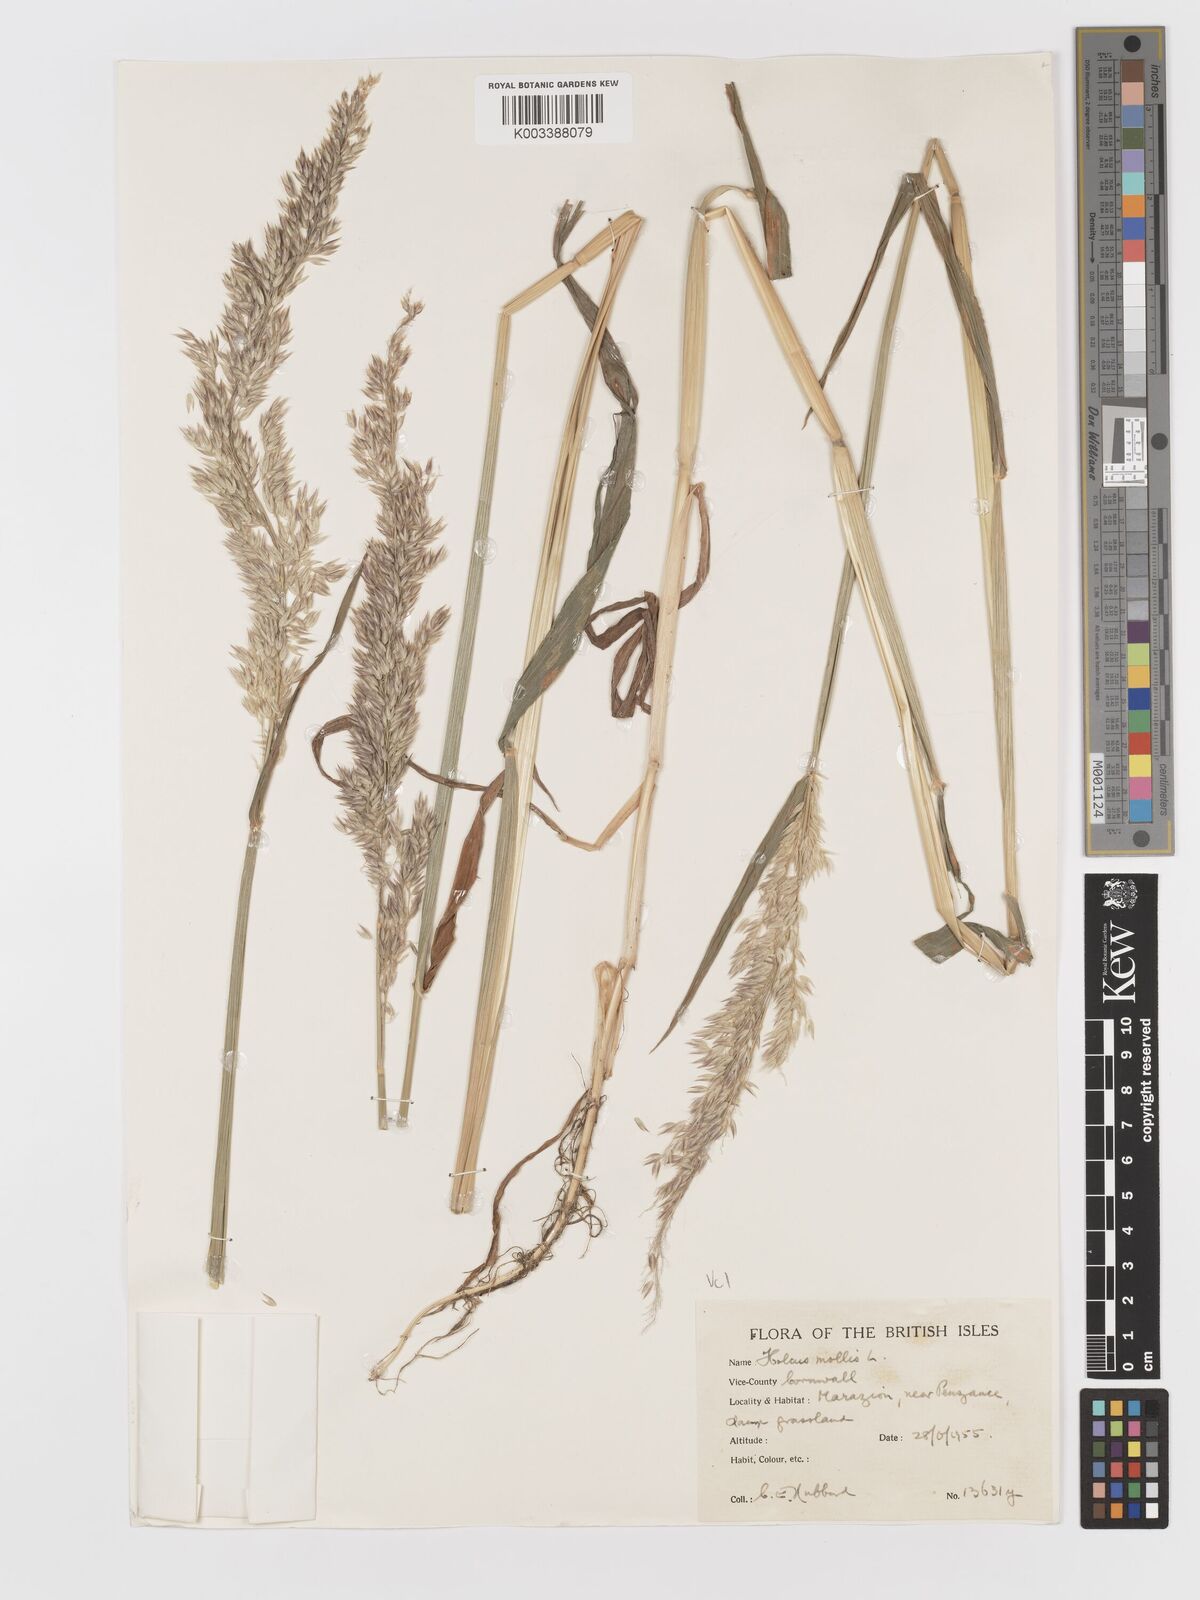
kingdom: Plantae
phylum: Tracheophyta
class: Liliopsida
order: Poales
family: Poaceae
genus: Holcus
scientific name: Holcus mollis
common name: Creeping velvetgrass
